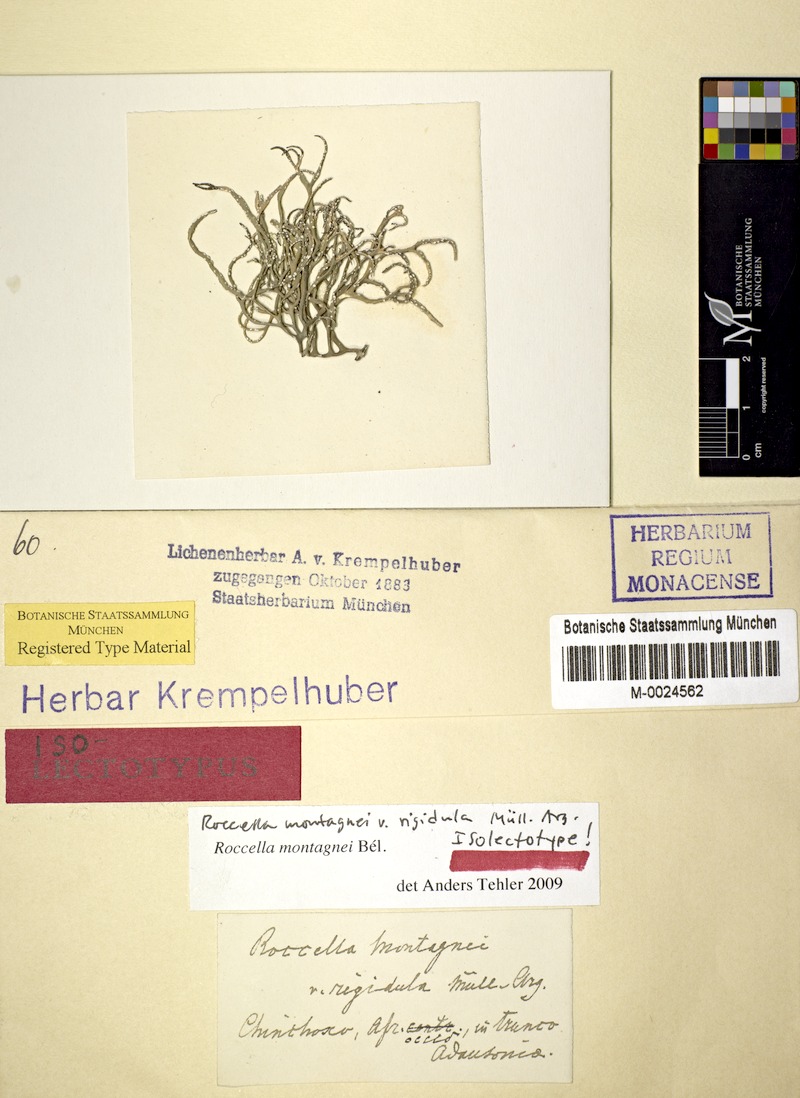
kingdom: Fungi
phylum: Ascomycota
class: Arthoniomycetes
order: Arthoniales
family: Roccellaceae
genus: Roccella
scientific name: Roccella montagnei
